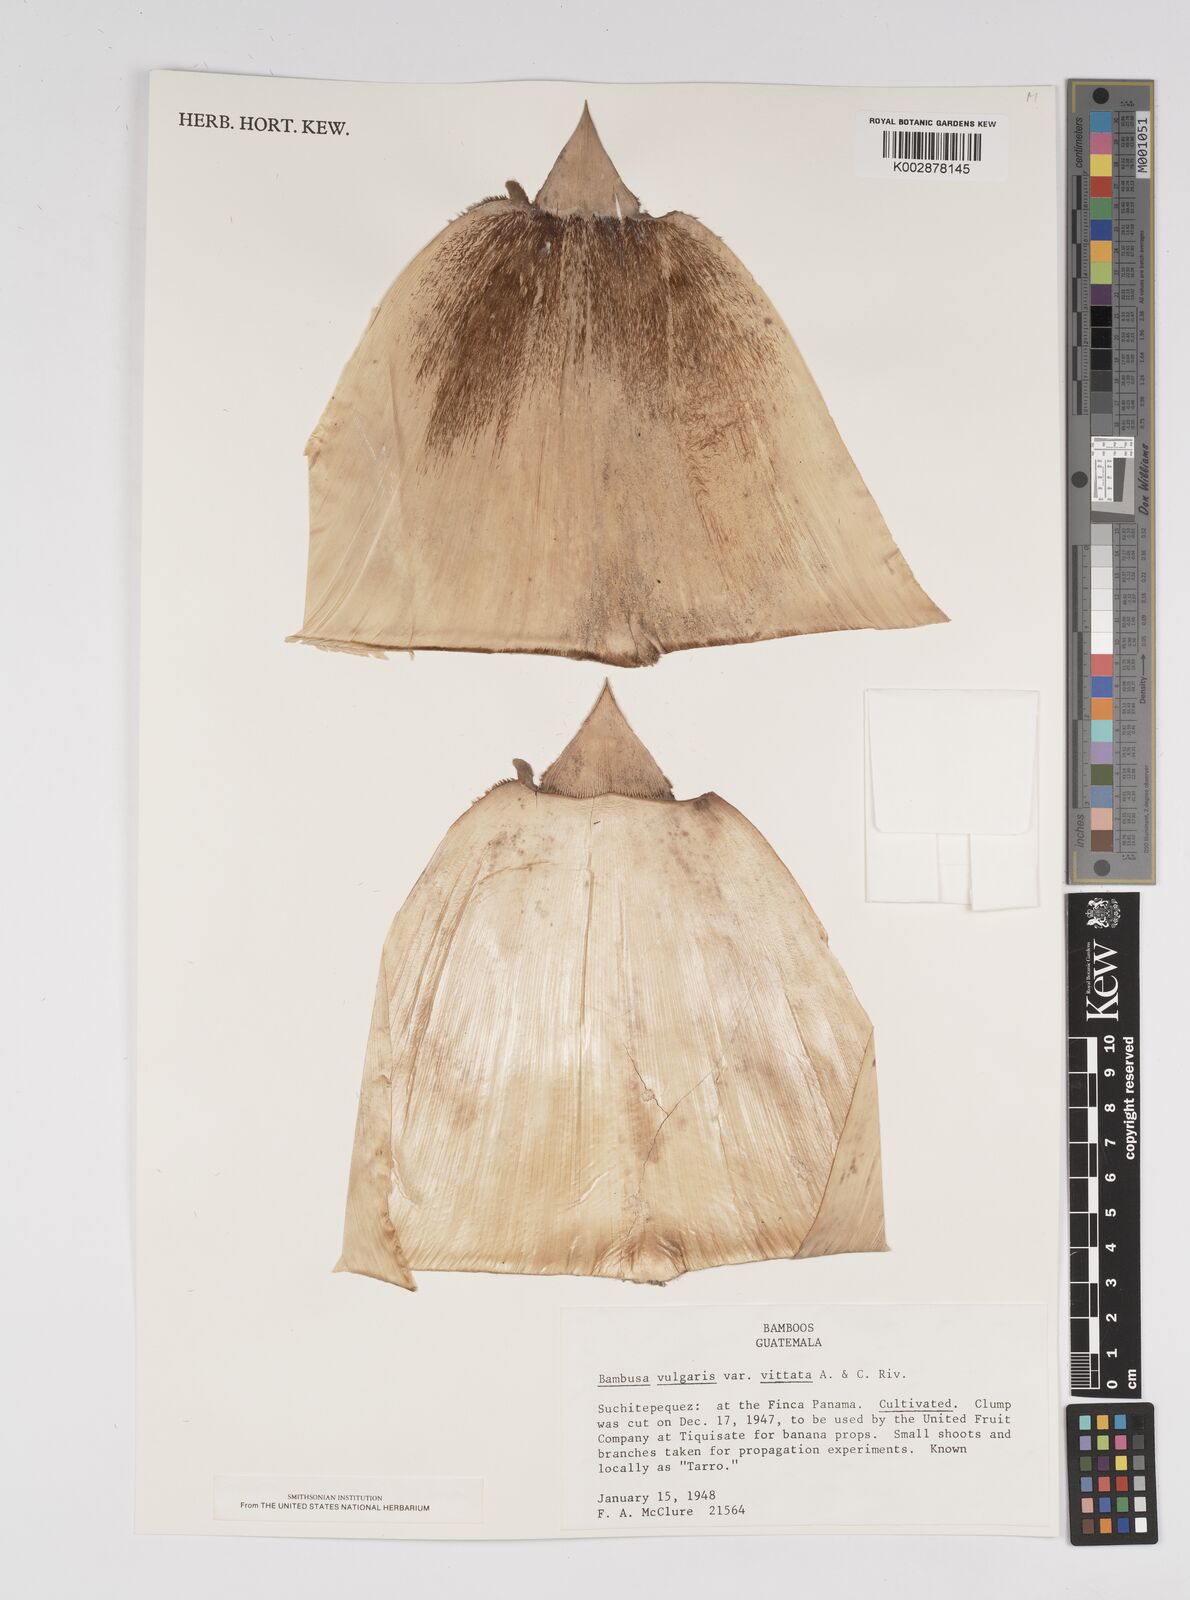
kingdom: Plantae
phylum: Tracheophyta
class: Liliopsida
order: Poales
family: Poaceae
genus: Bambusa
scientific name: Bambusa
